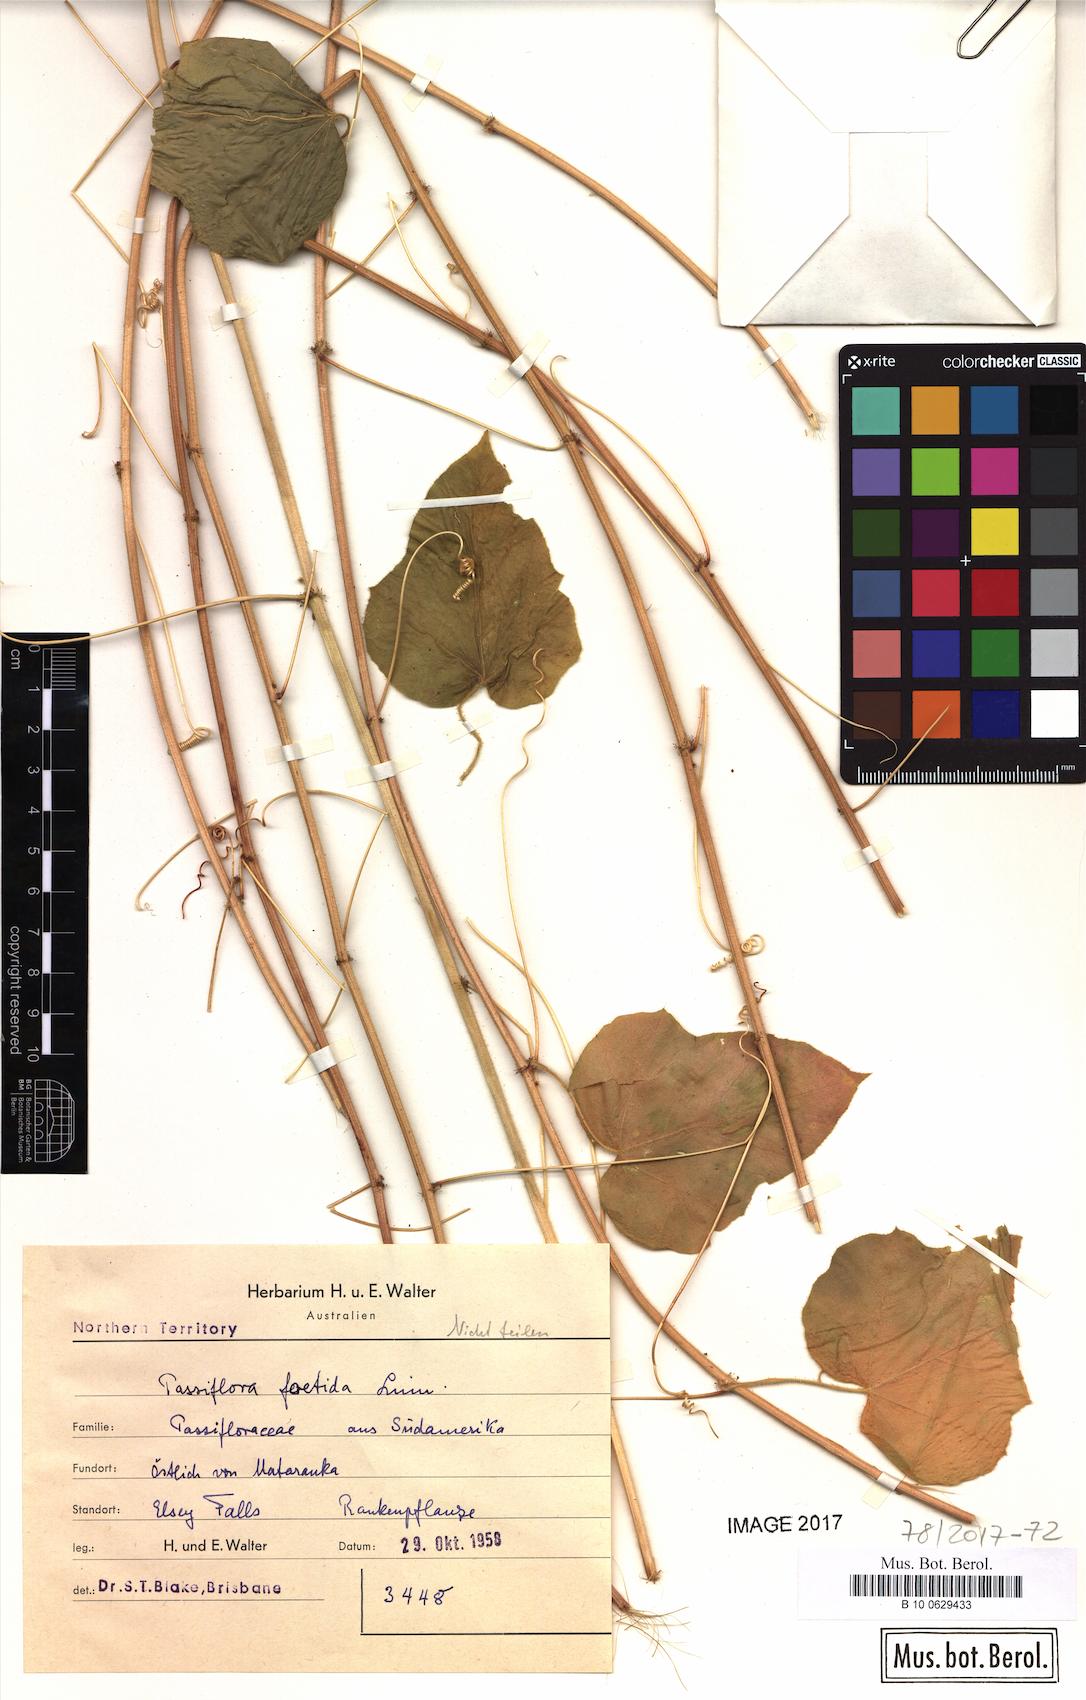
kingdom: Plantae
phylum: Tracheophyta
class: Magnoliopsida
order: Malpighiales
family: Passifloraceae
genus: Passiflora
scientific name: Passiflora foetida
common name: Fetid passionflower
